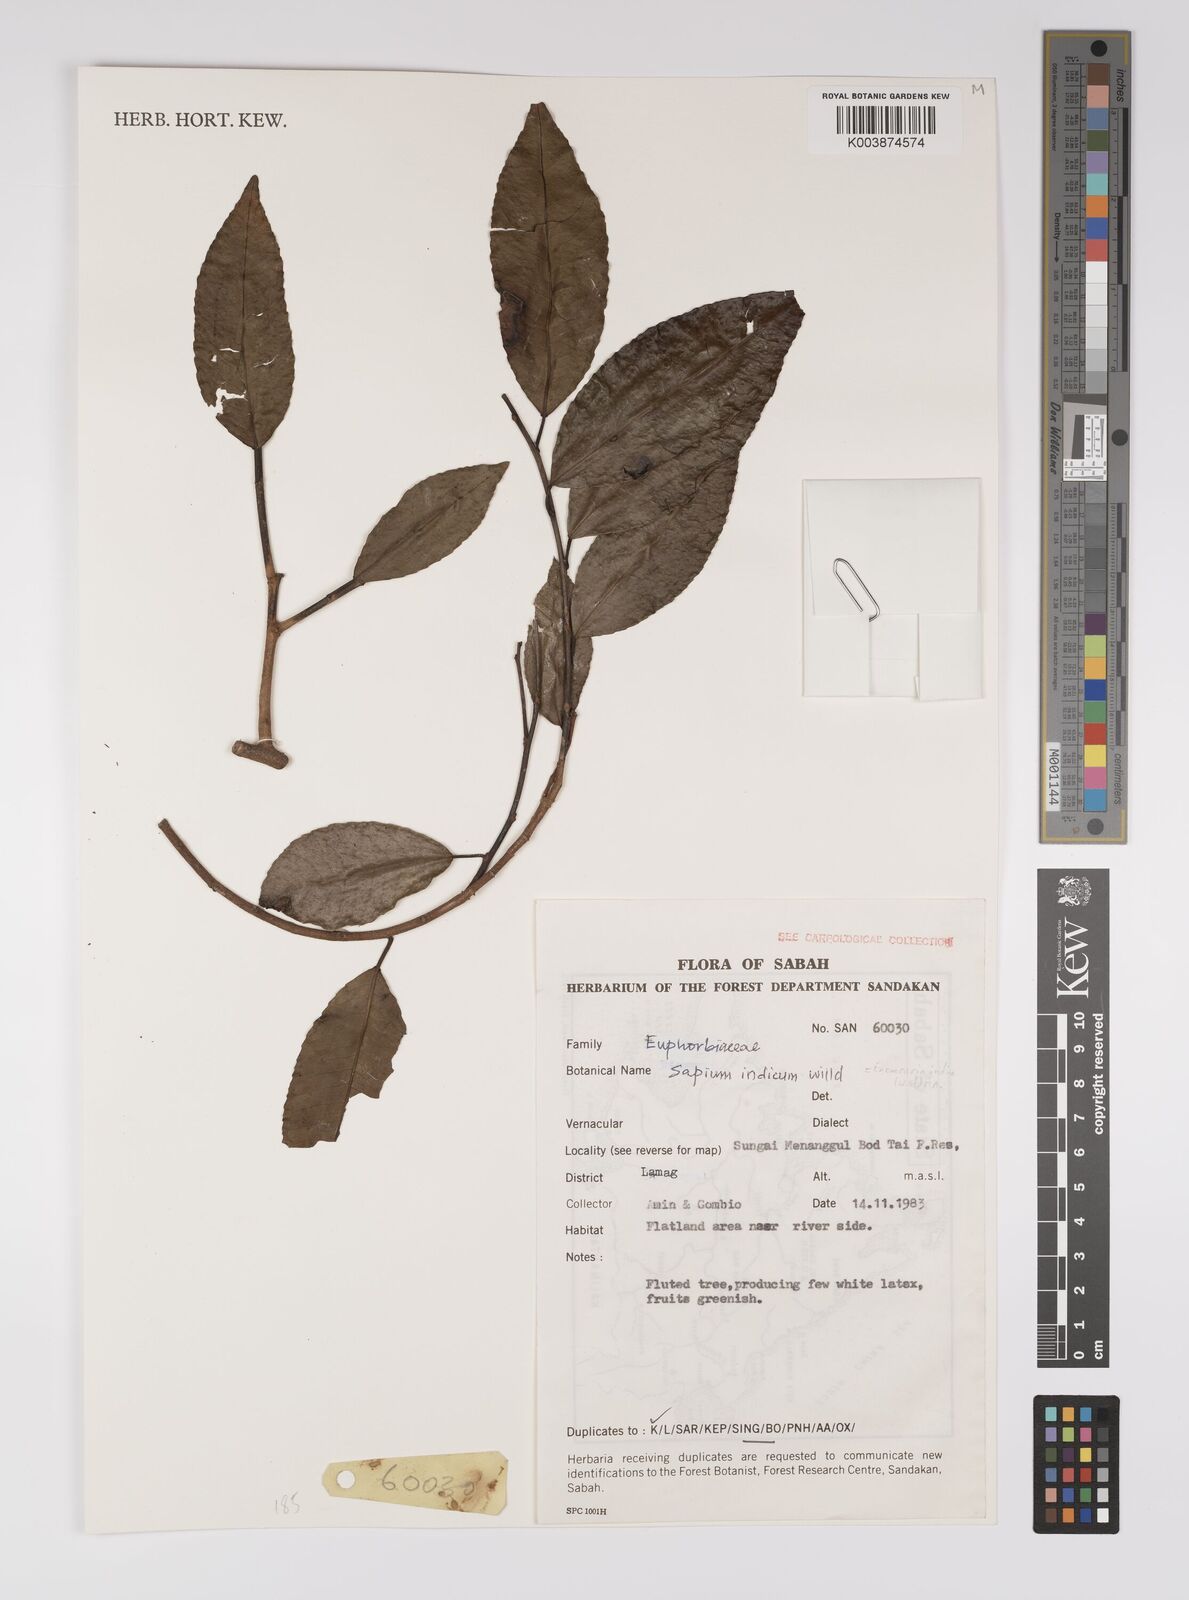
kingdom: Plantae
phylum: Tracheophyta
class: Magnoliopsida
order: Malpighiales
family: Euphorbiaceae
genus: Shirakiopsis
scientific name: Shirakiopsis indica
